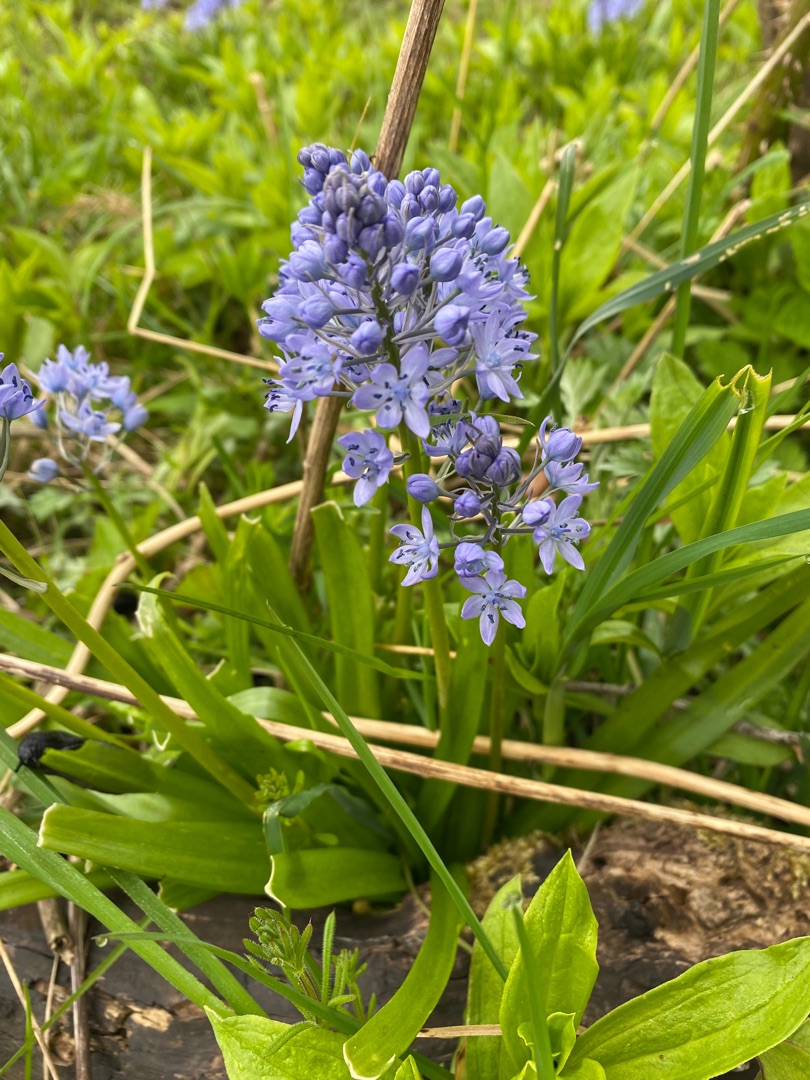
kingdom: Plantae
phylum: Tracheophyta
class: Liliopsida
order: Asparagales
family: Asparagaceae
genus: Hyacinthoides
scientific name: Hyacinthoides italica
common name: Italiensk skilla
